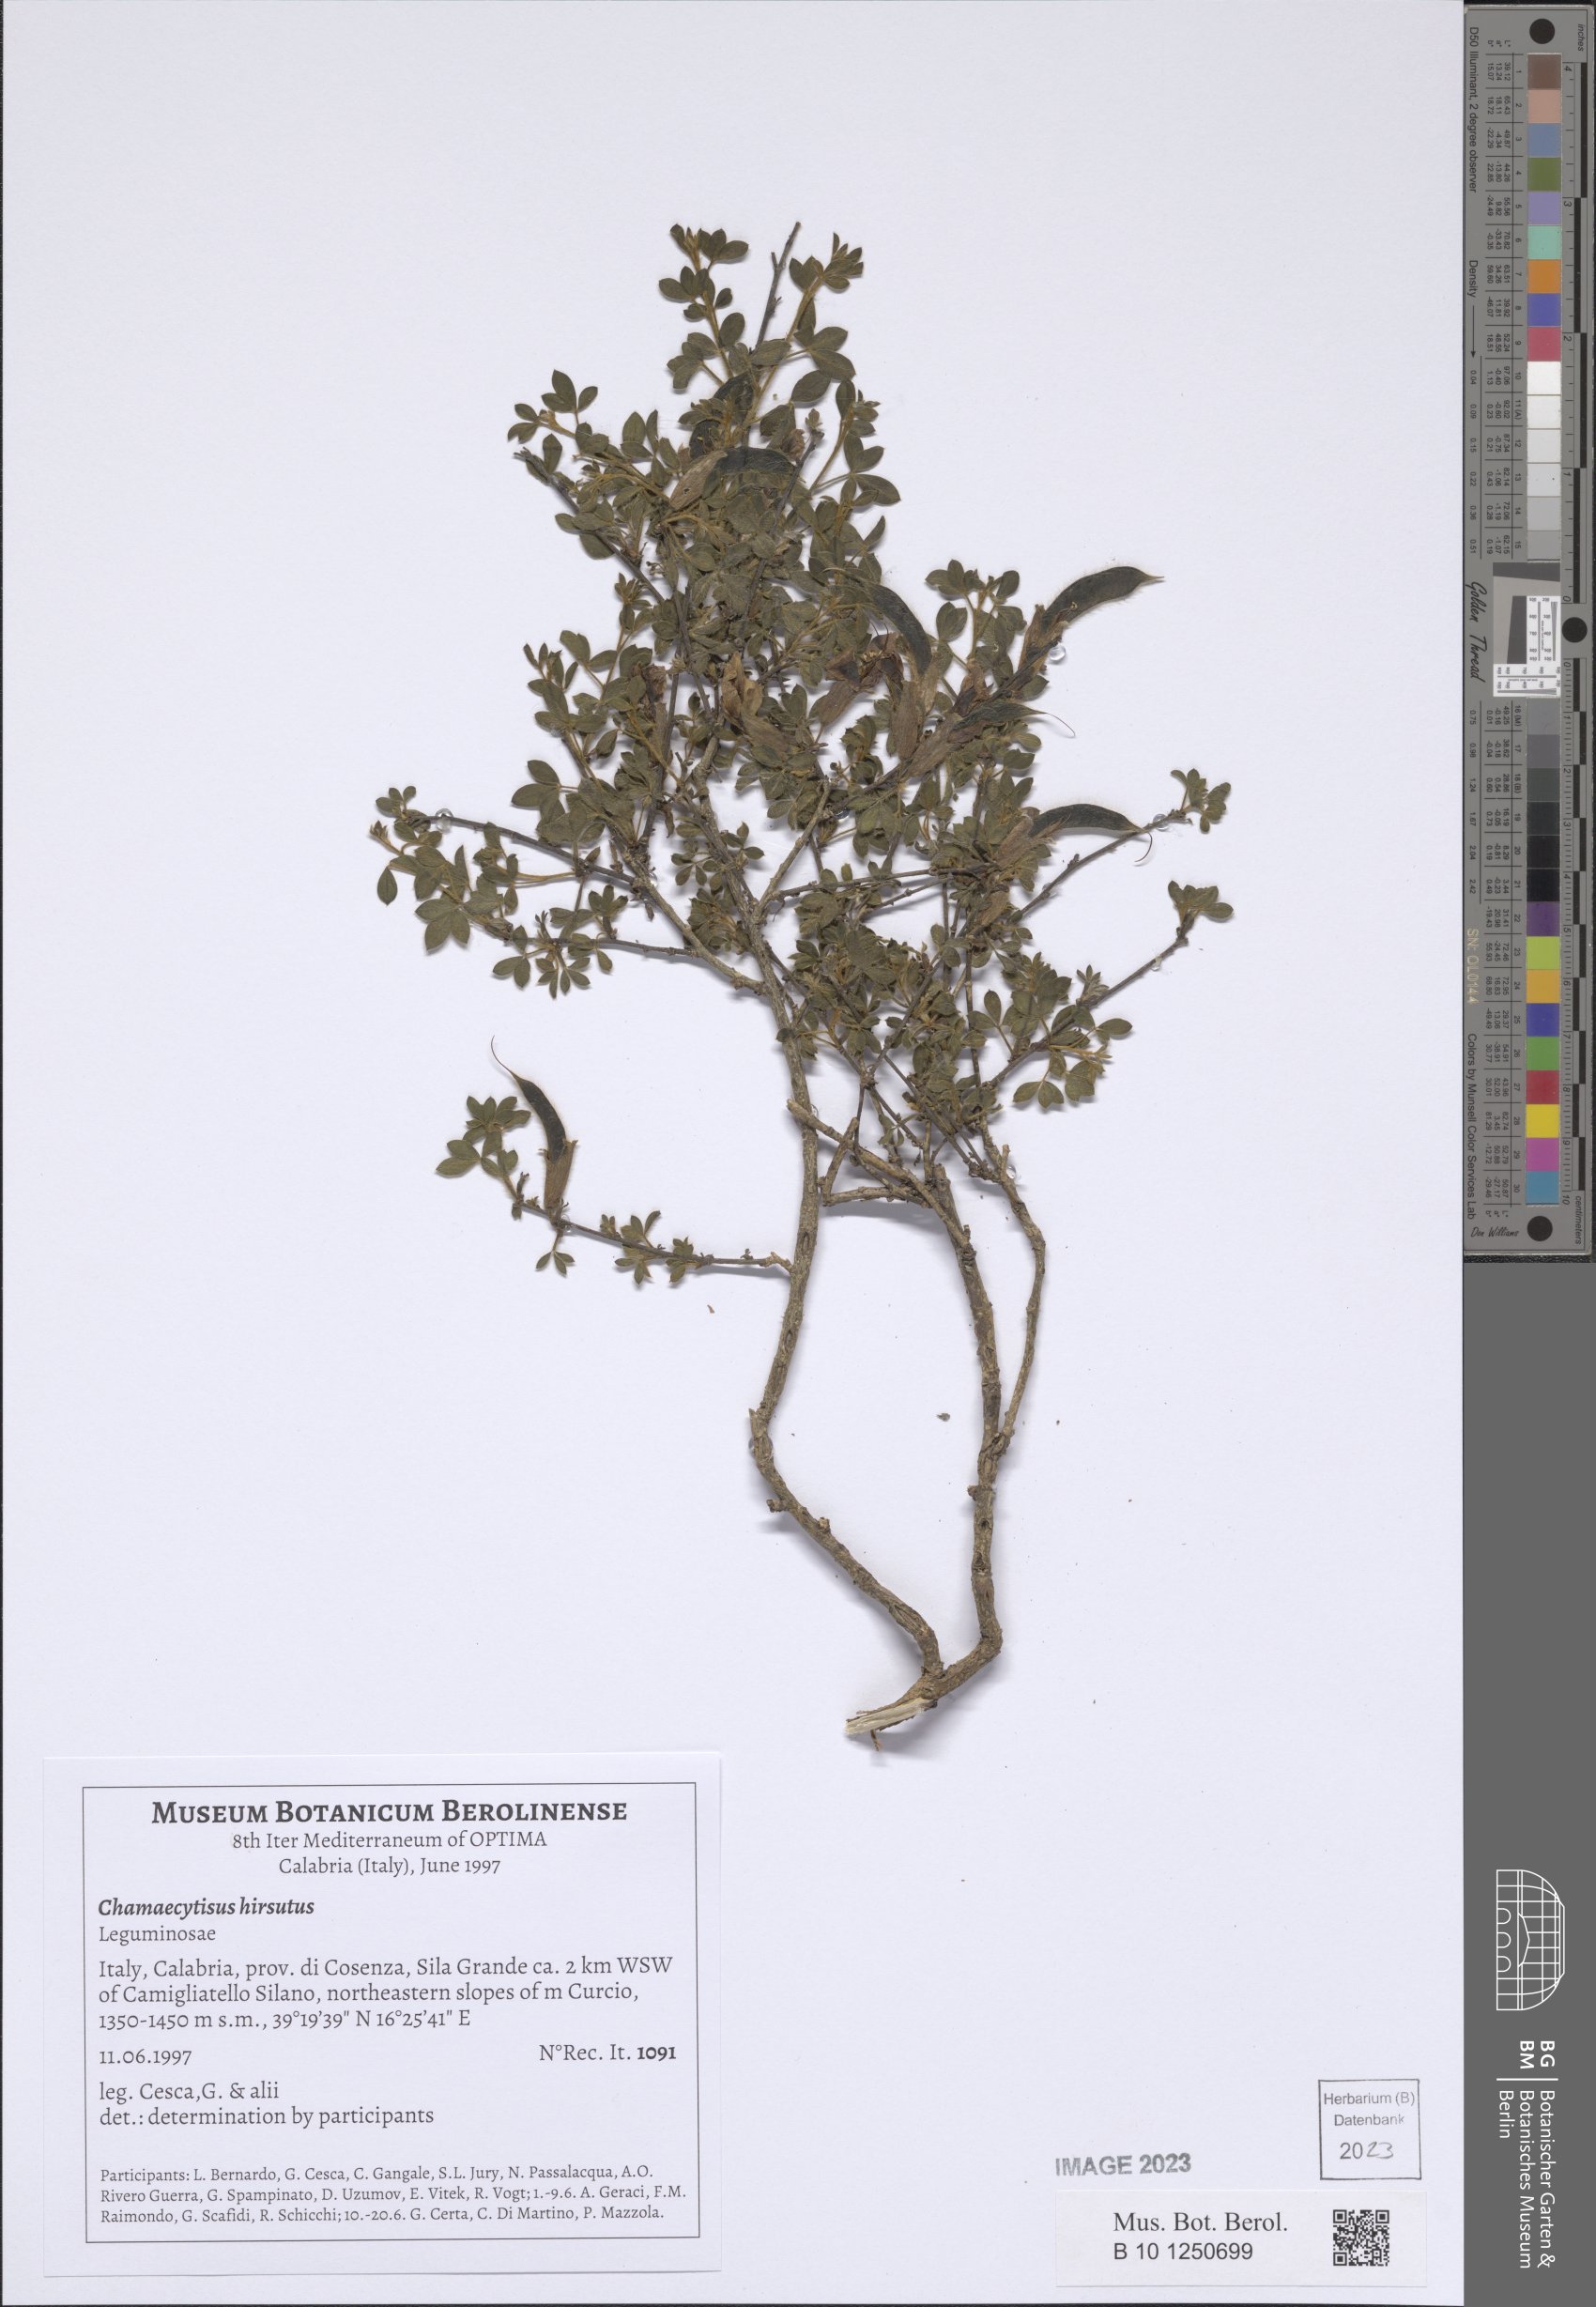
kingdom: Plantae
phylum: Tracheophyta
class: Magnoliopsida
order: Fabales
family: Fabaceae
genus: Chamaecytisus
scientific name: Chamaecytisus hirsutus
